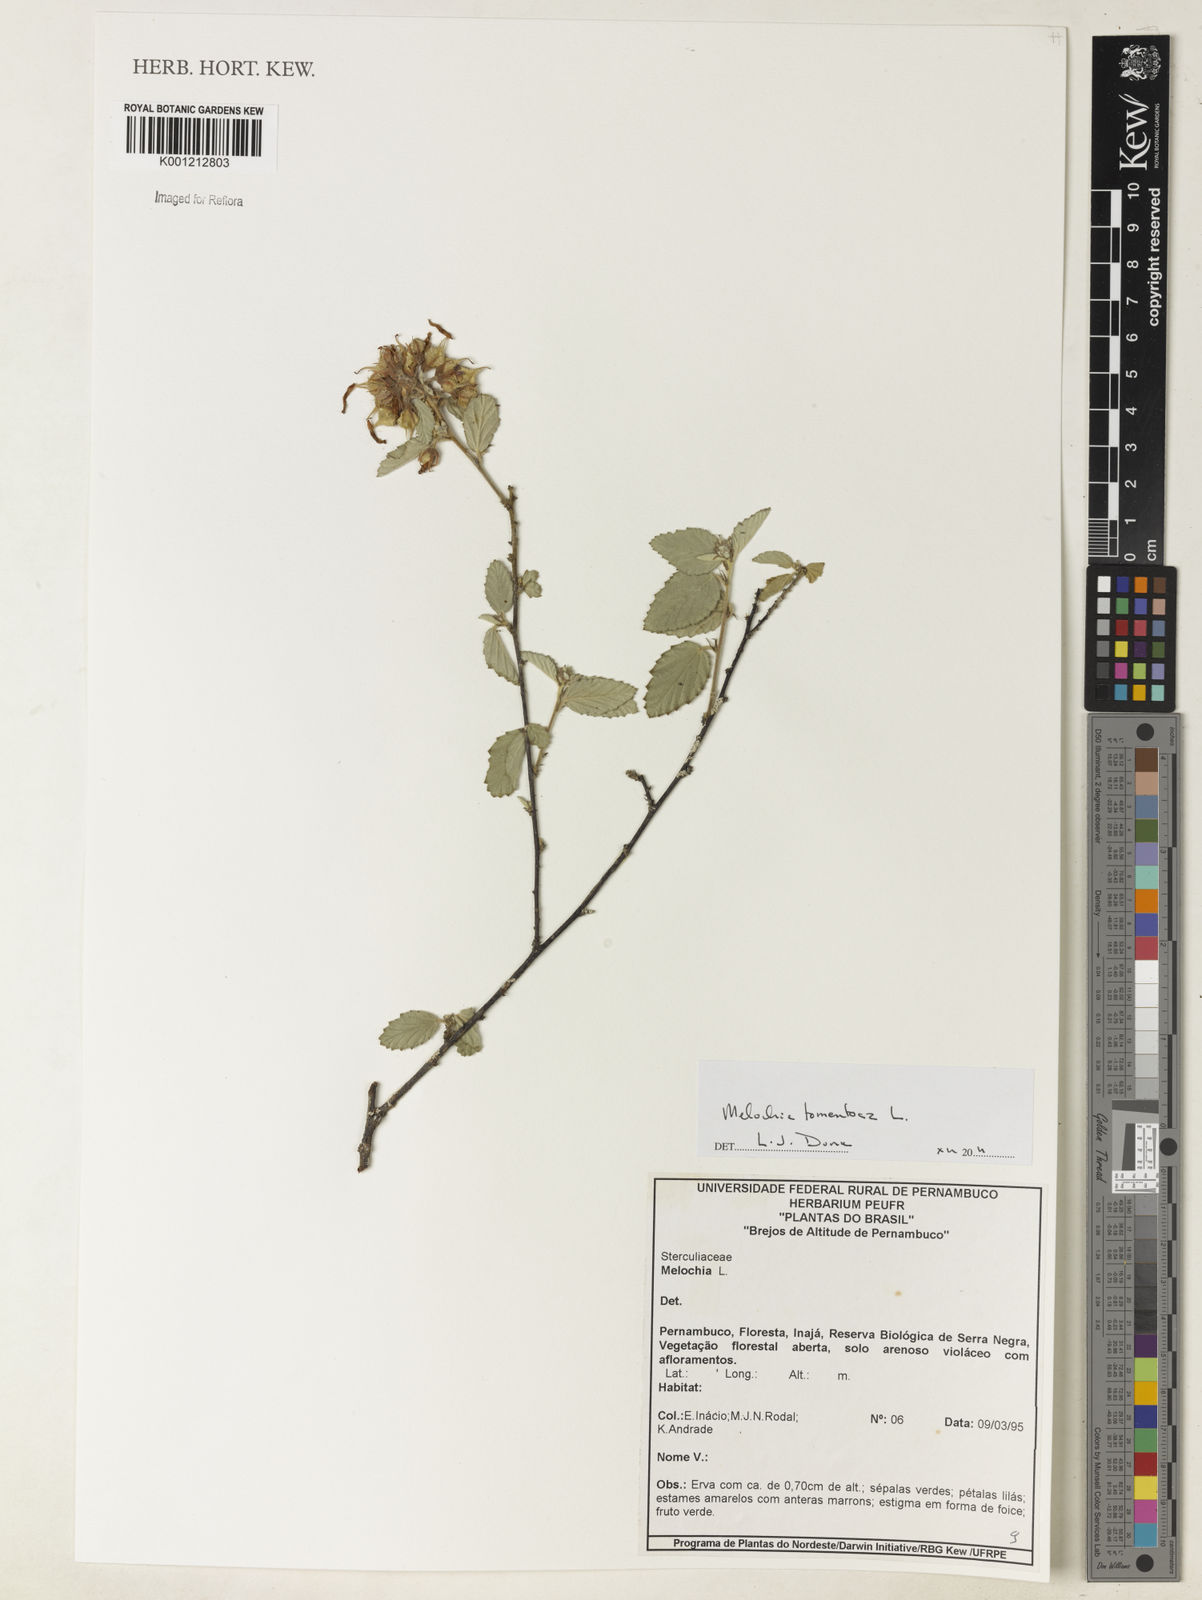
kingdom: Plantae
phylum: Tracheophyta
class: Magnoliopsida
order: Malvales
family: Malvaceae
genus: Melochia
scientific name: Melochia tomentosa
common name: Black torch
